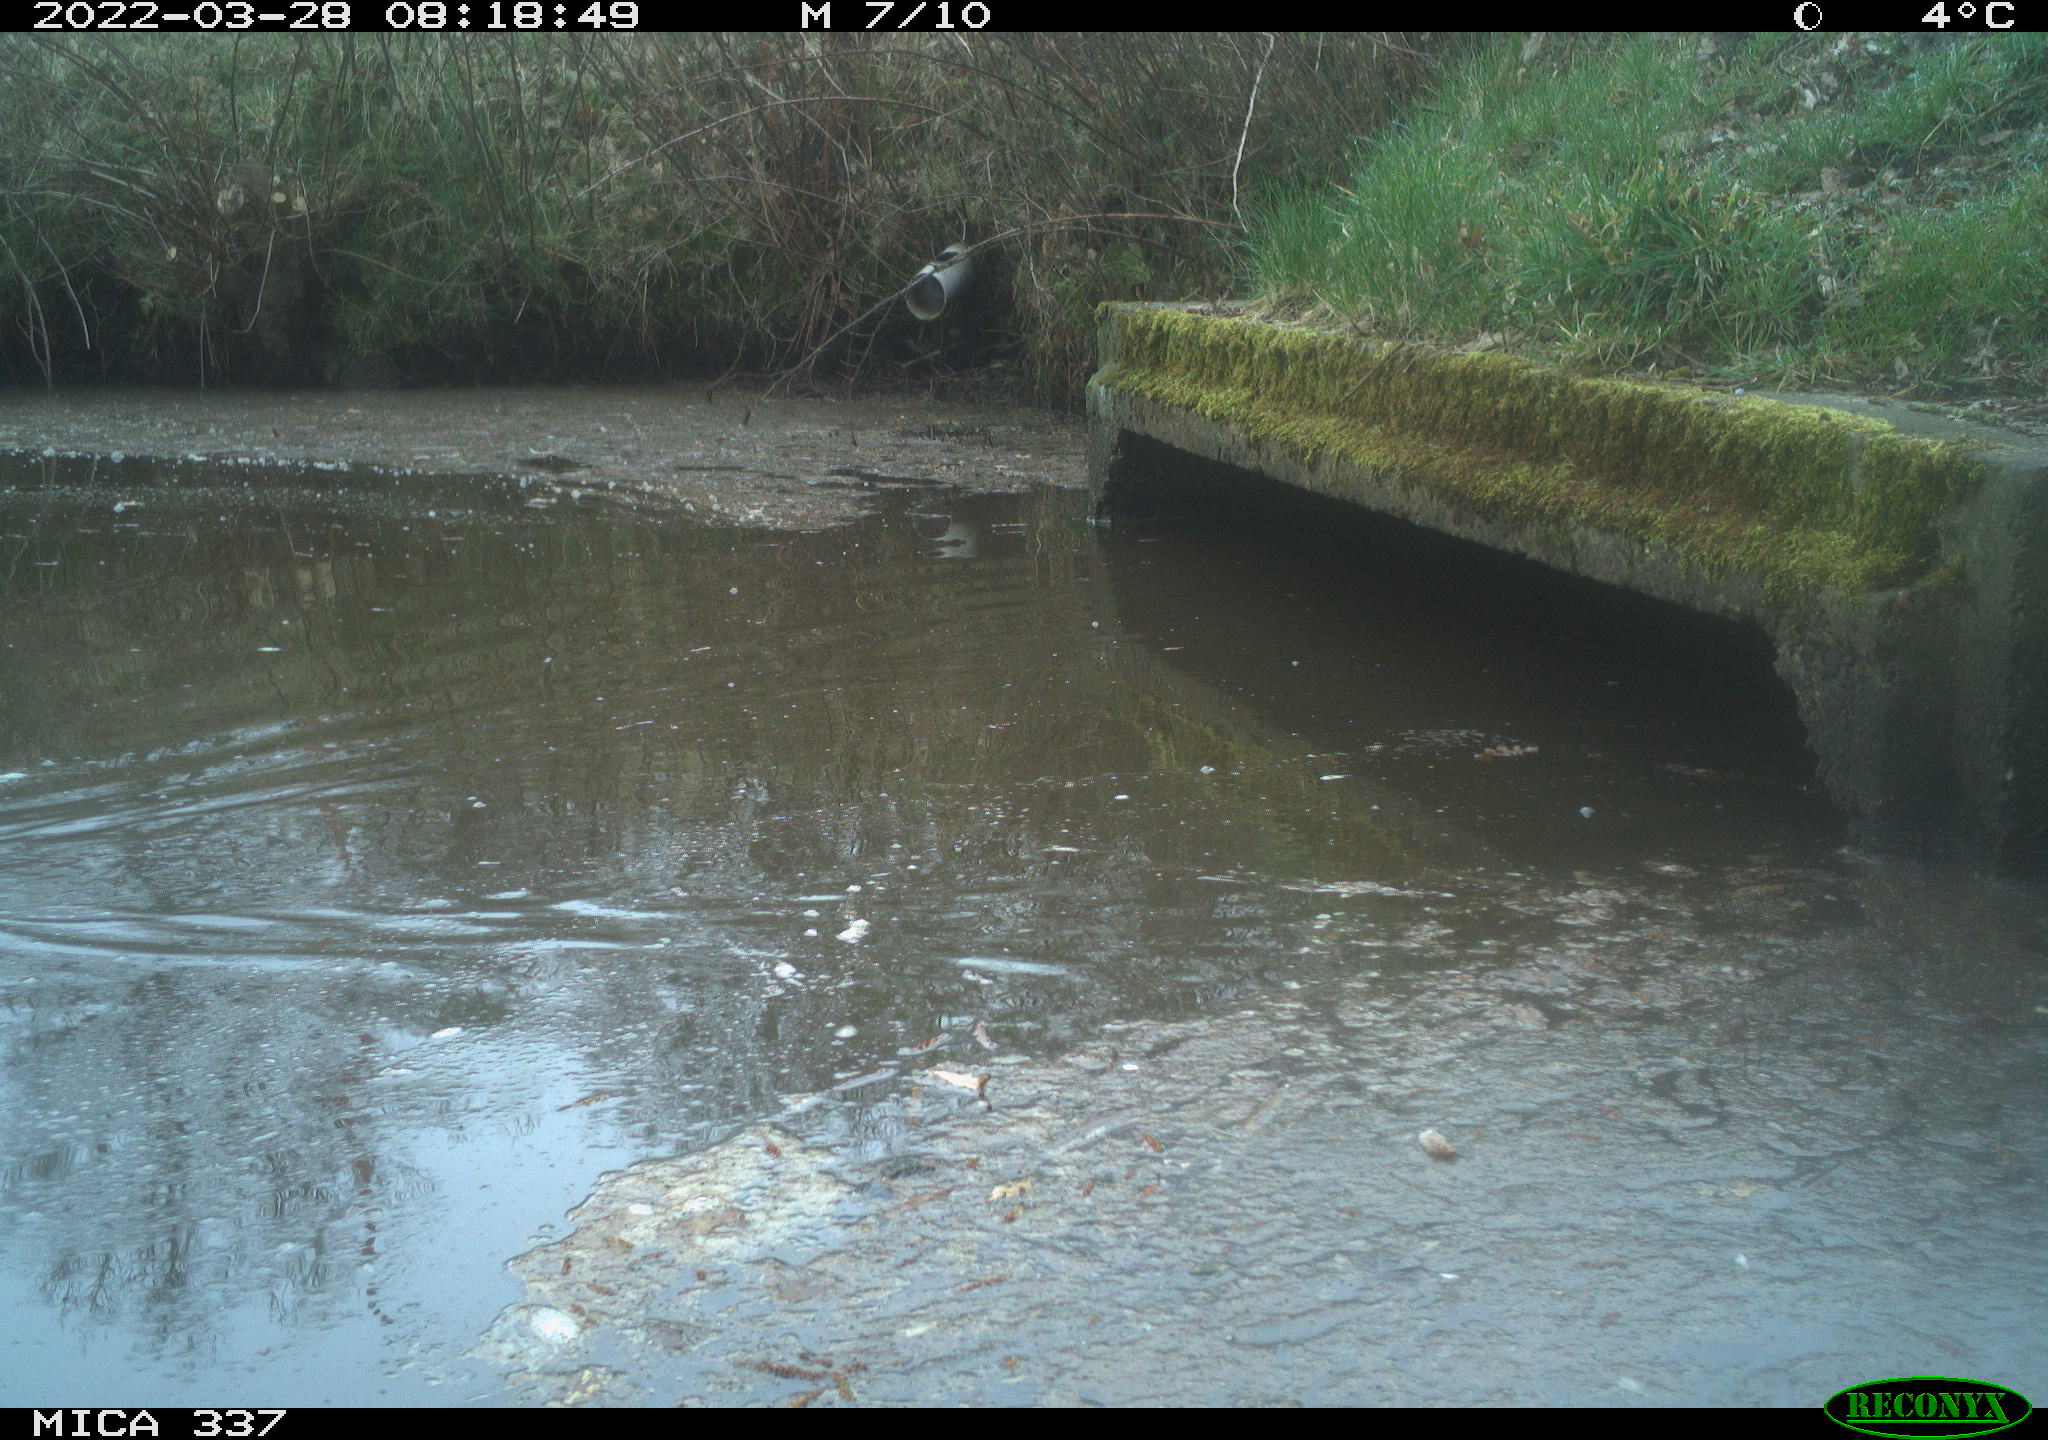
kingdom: Animalia
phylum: Chordata
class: Aves
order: Anseriformes
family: Anatidae
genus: Anas
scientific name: Anas platyrhynchos
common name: Mallard
